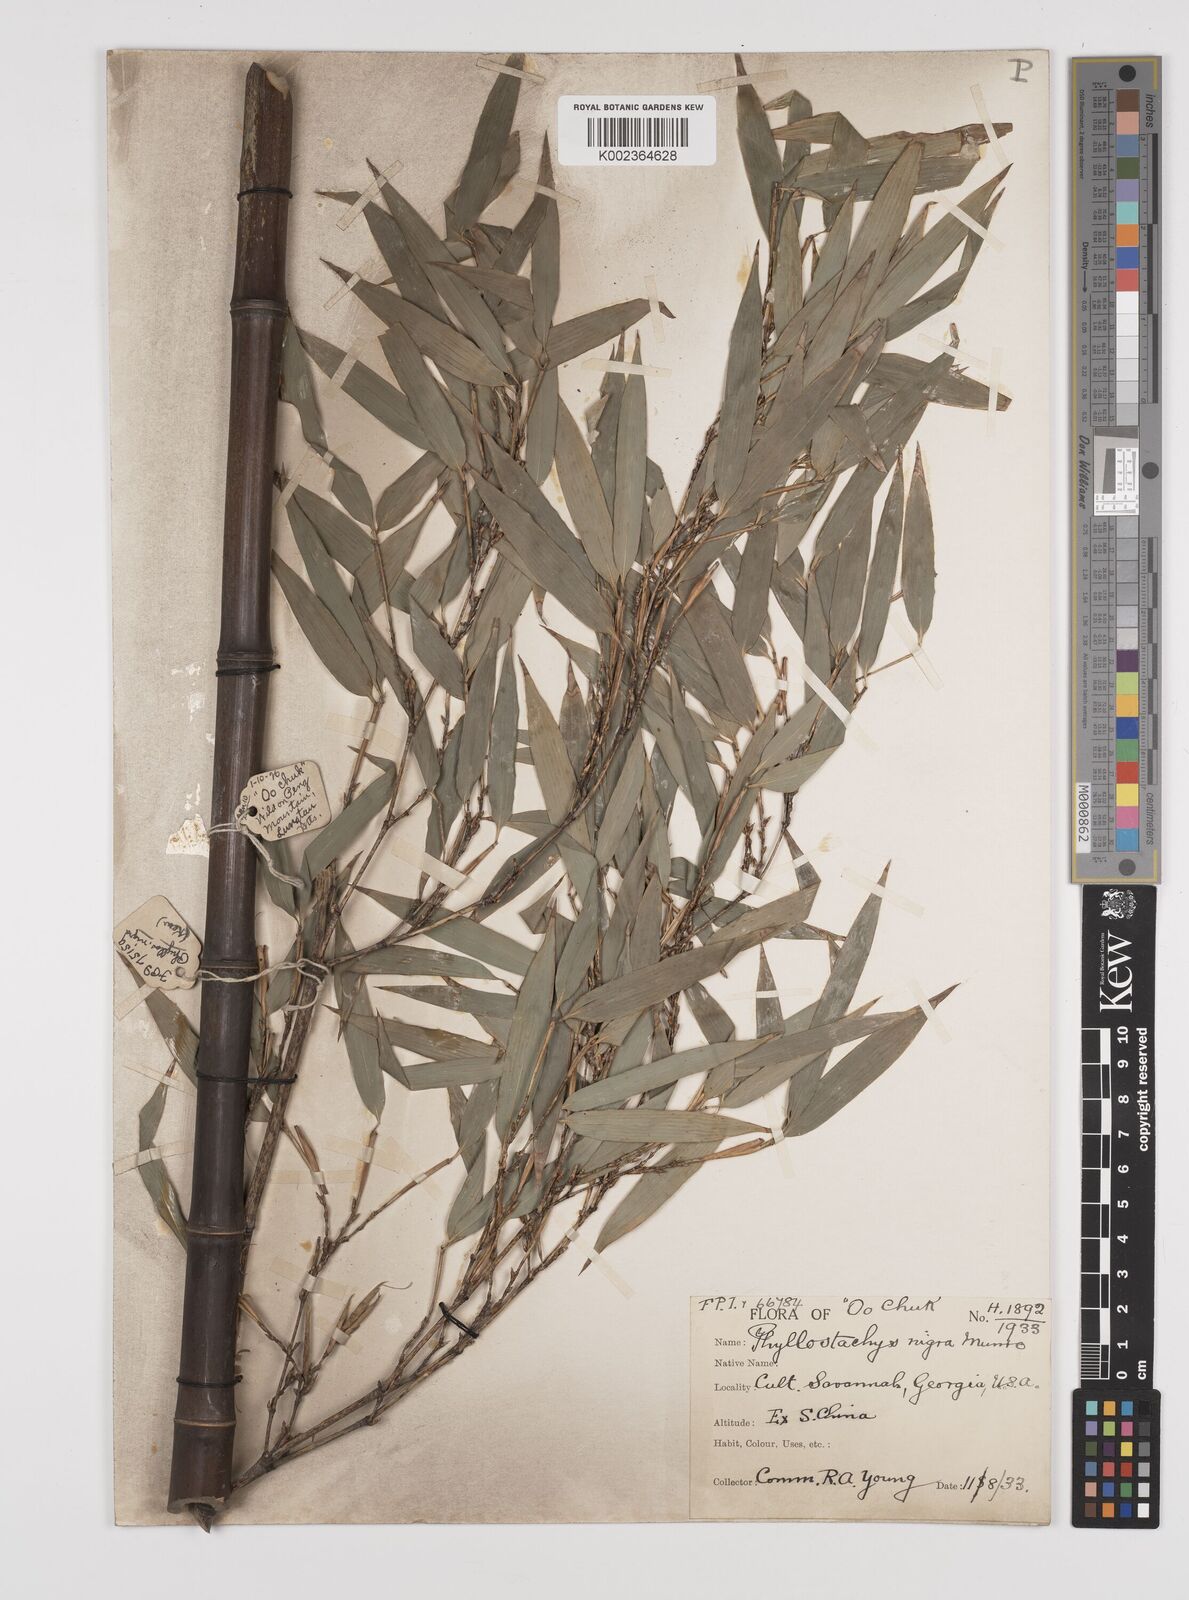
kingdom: Plantae
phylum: Tracheophyta
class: Liliopsida
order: Poales
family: Poaceae
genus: Phyllostachys
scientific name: Phyllostachys nigra
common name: Black bamboo
